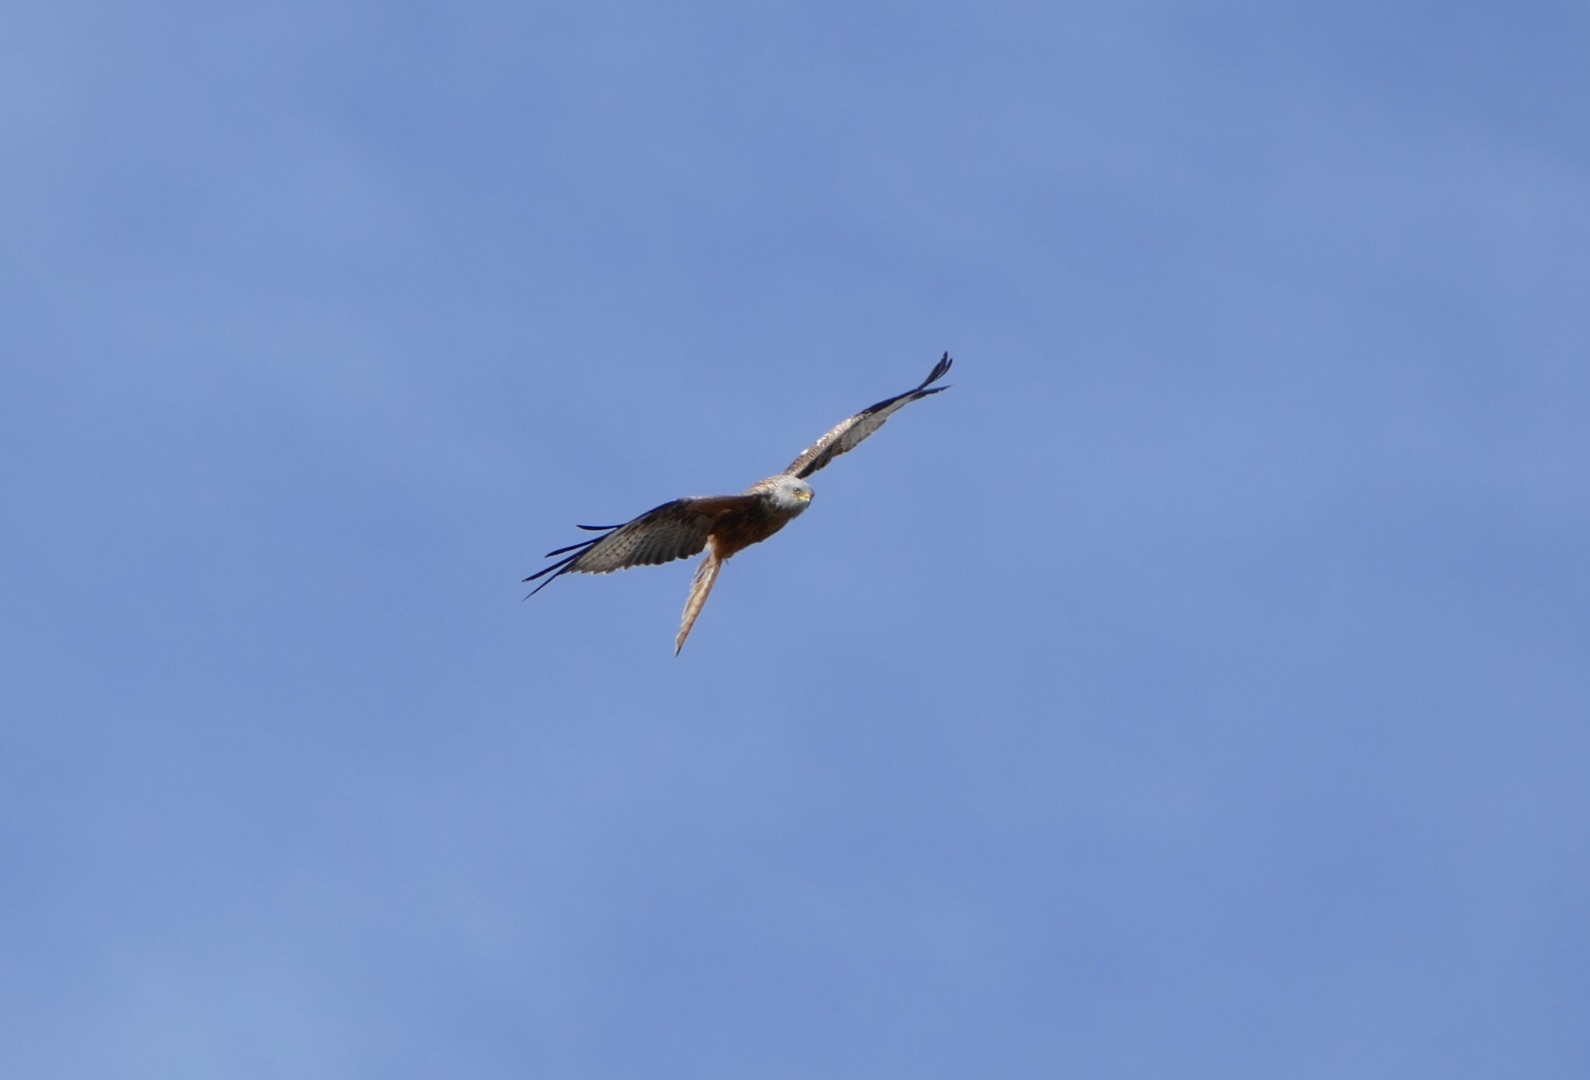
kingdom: Animalia
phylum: Chordata
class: Aves
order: Accipitriformes
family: Accipitridae
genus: Milvus
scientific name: Milvus milvus
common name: Rød glente
